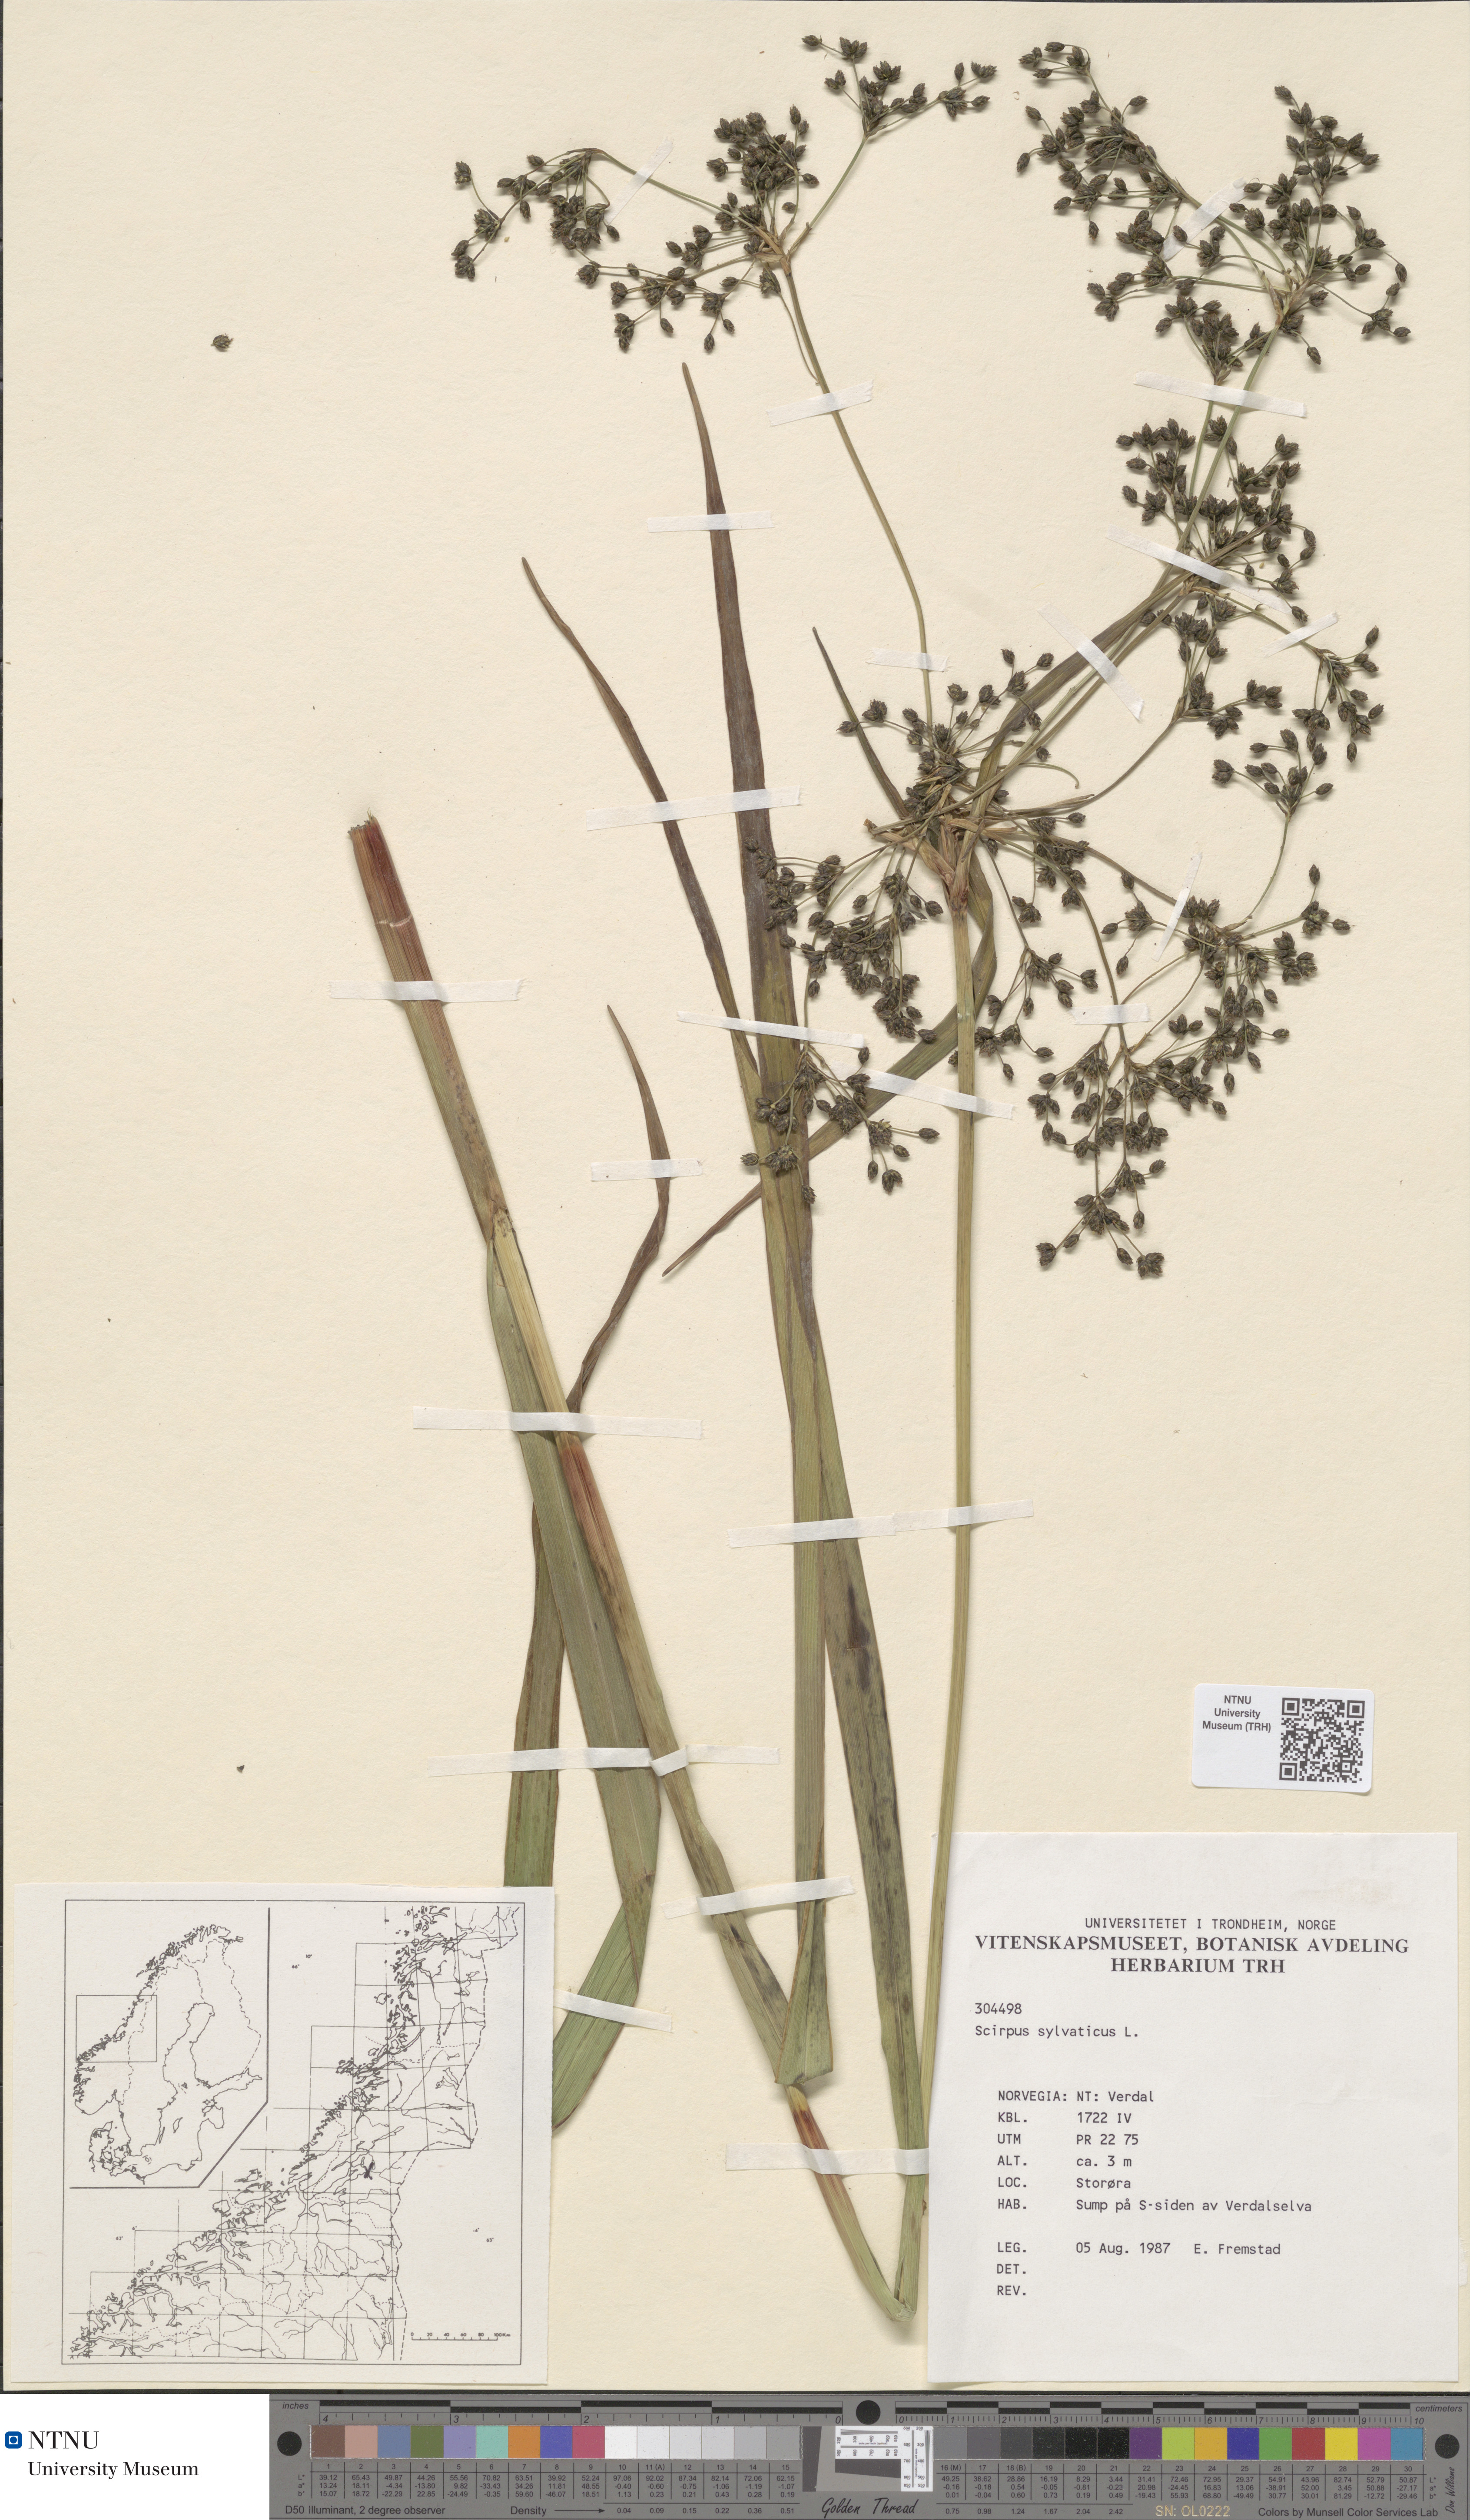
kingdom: Plantae
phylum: Tracheophyta
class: Liliopsida
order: Poales
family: Cyperaceae
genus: Scirpus
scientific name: Scirpus sylvaticus
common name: Wood club-rush
